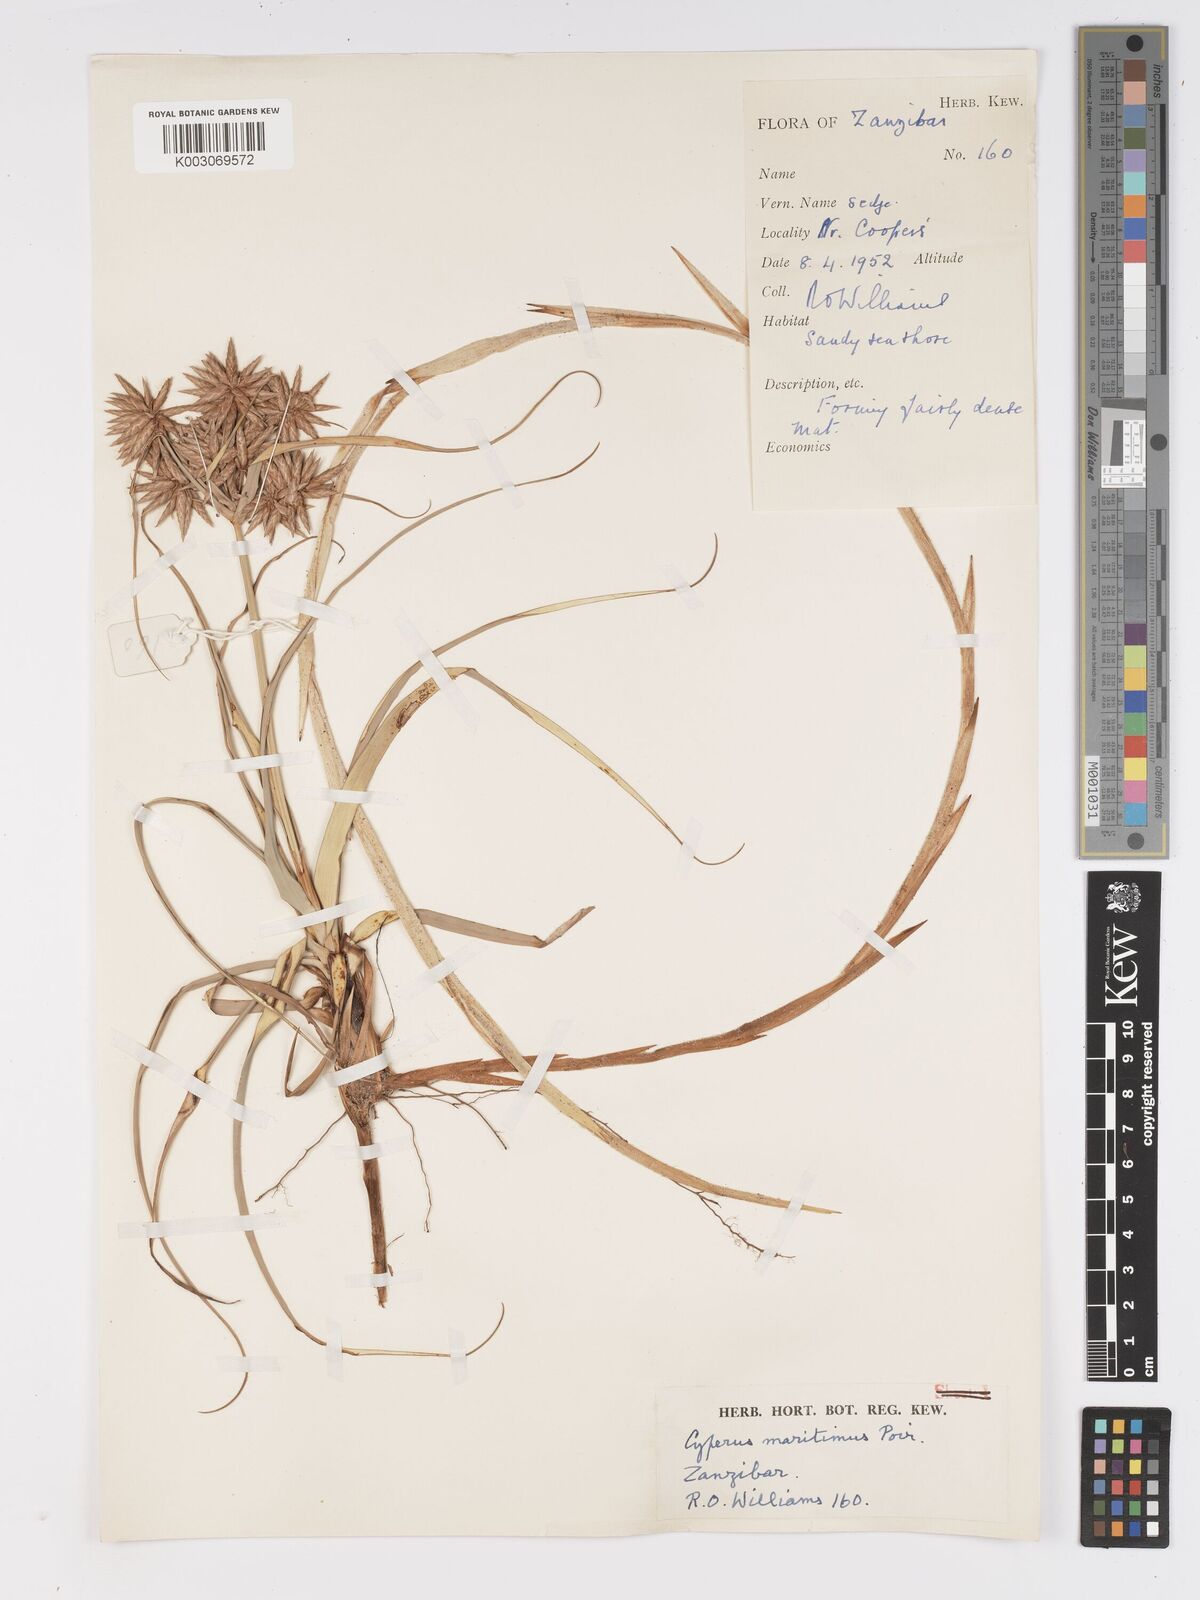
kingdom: Plantae
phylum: Tracheophyta
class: Liliopsida
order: Poales
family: Cyperaceae
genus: Cyperus
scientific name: Cyperus crassipes
